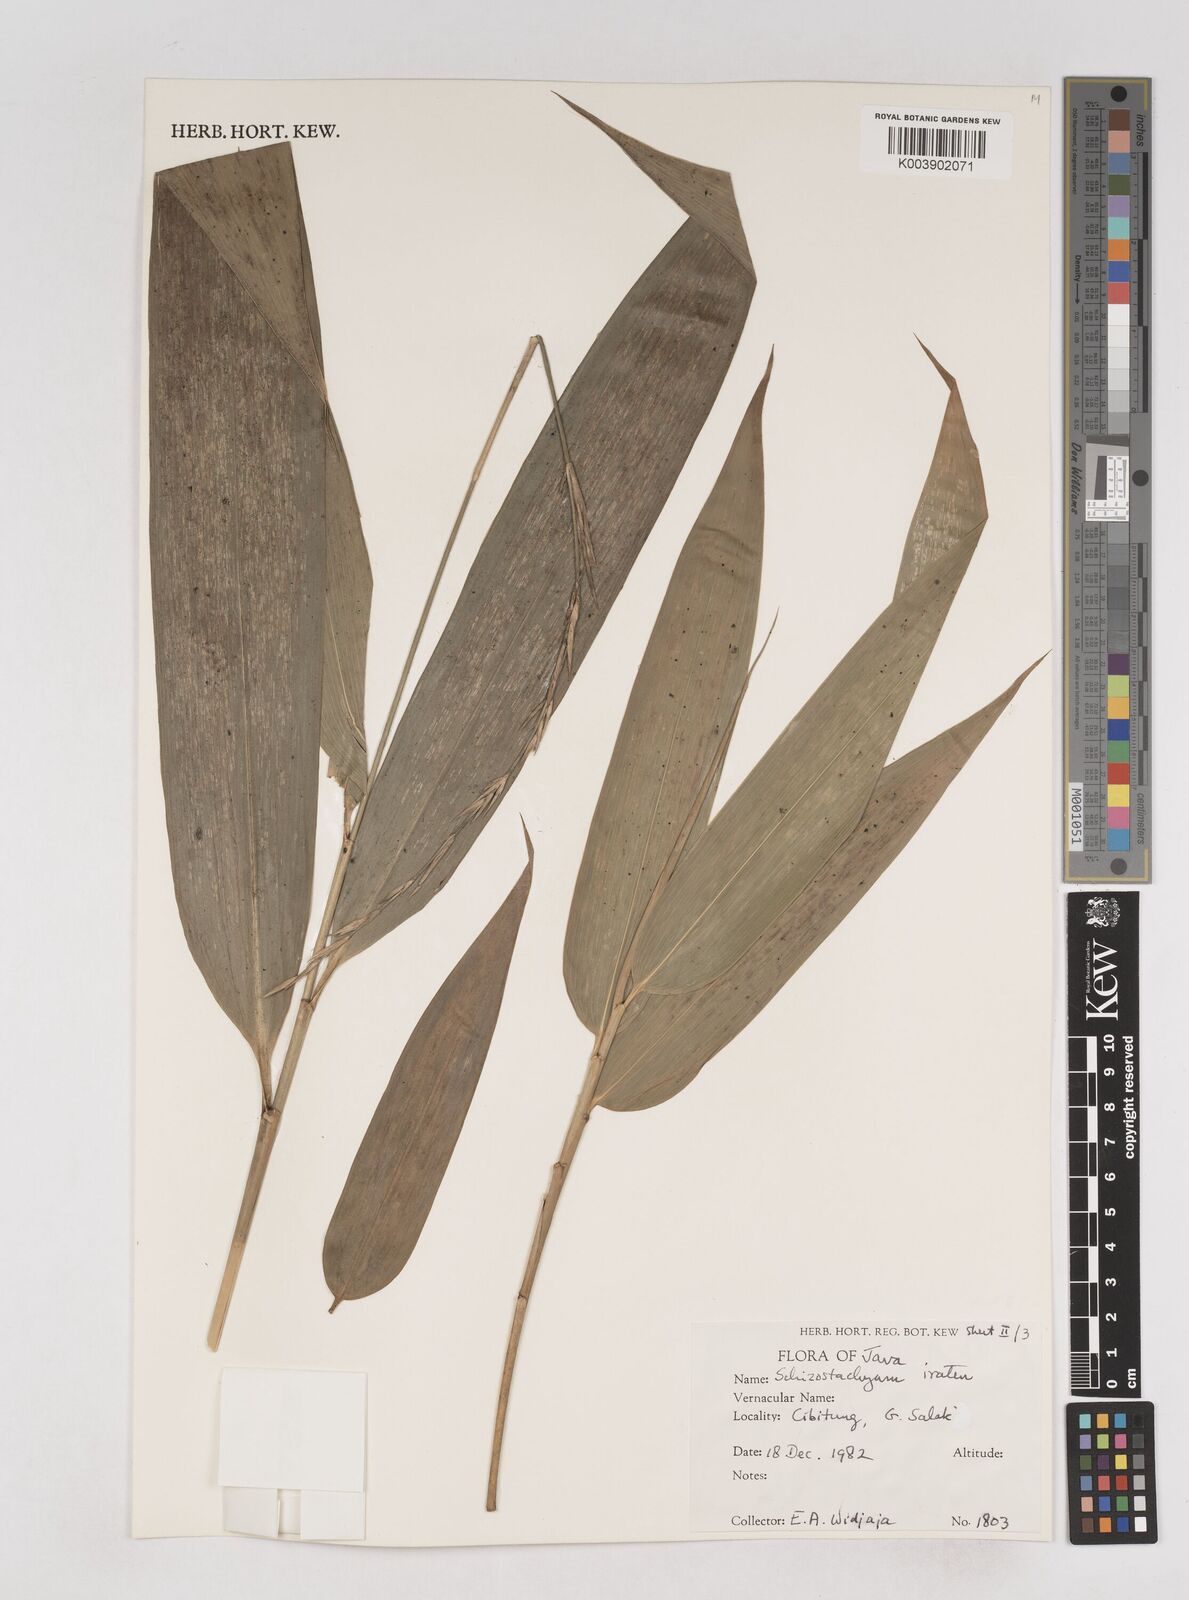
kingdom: Plantae
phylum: Tracheophyta
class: Liliopsida
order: Poales
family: Poaceae
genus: Schizostachyum
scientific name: Schizostachyum iraten
